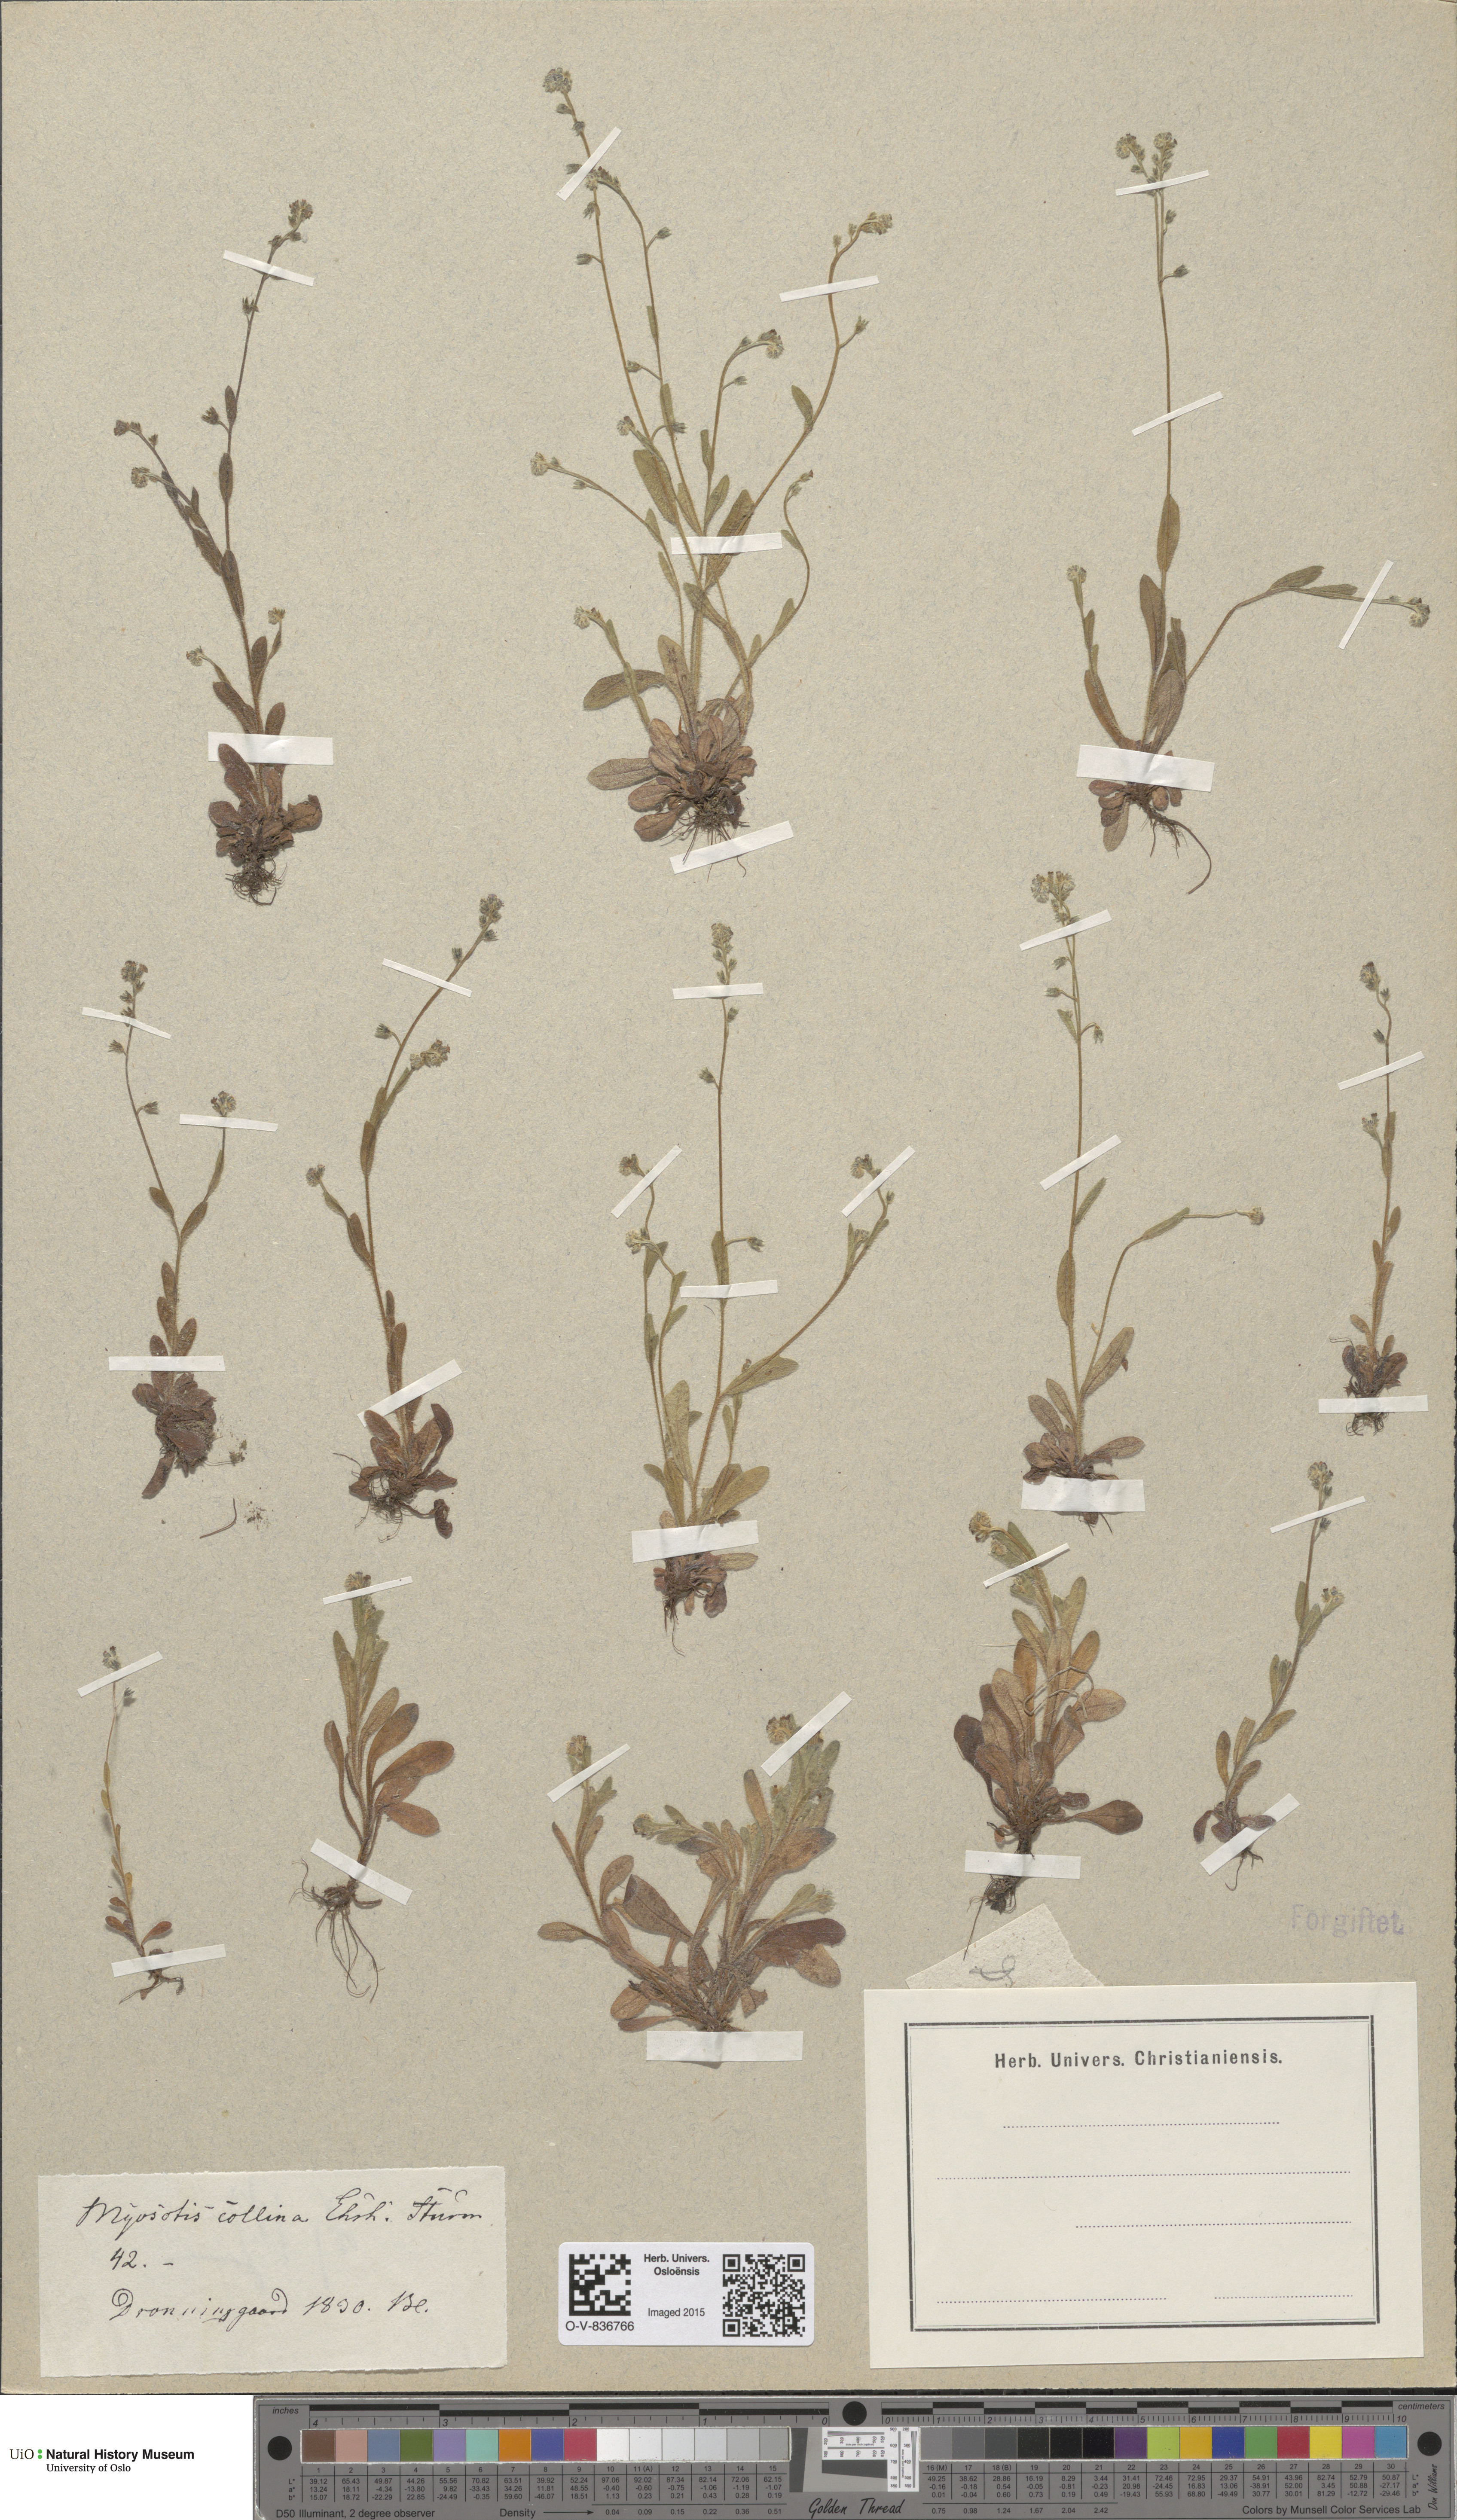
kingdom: Plantae
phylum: Tracheophyta
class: Magnoliopsida
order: Boraginales
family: Boraginaceae
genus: Myosotis
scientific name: Myosotis ramosissima
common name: Early forget-me-not
